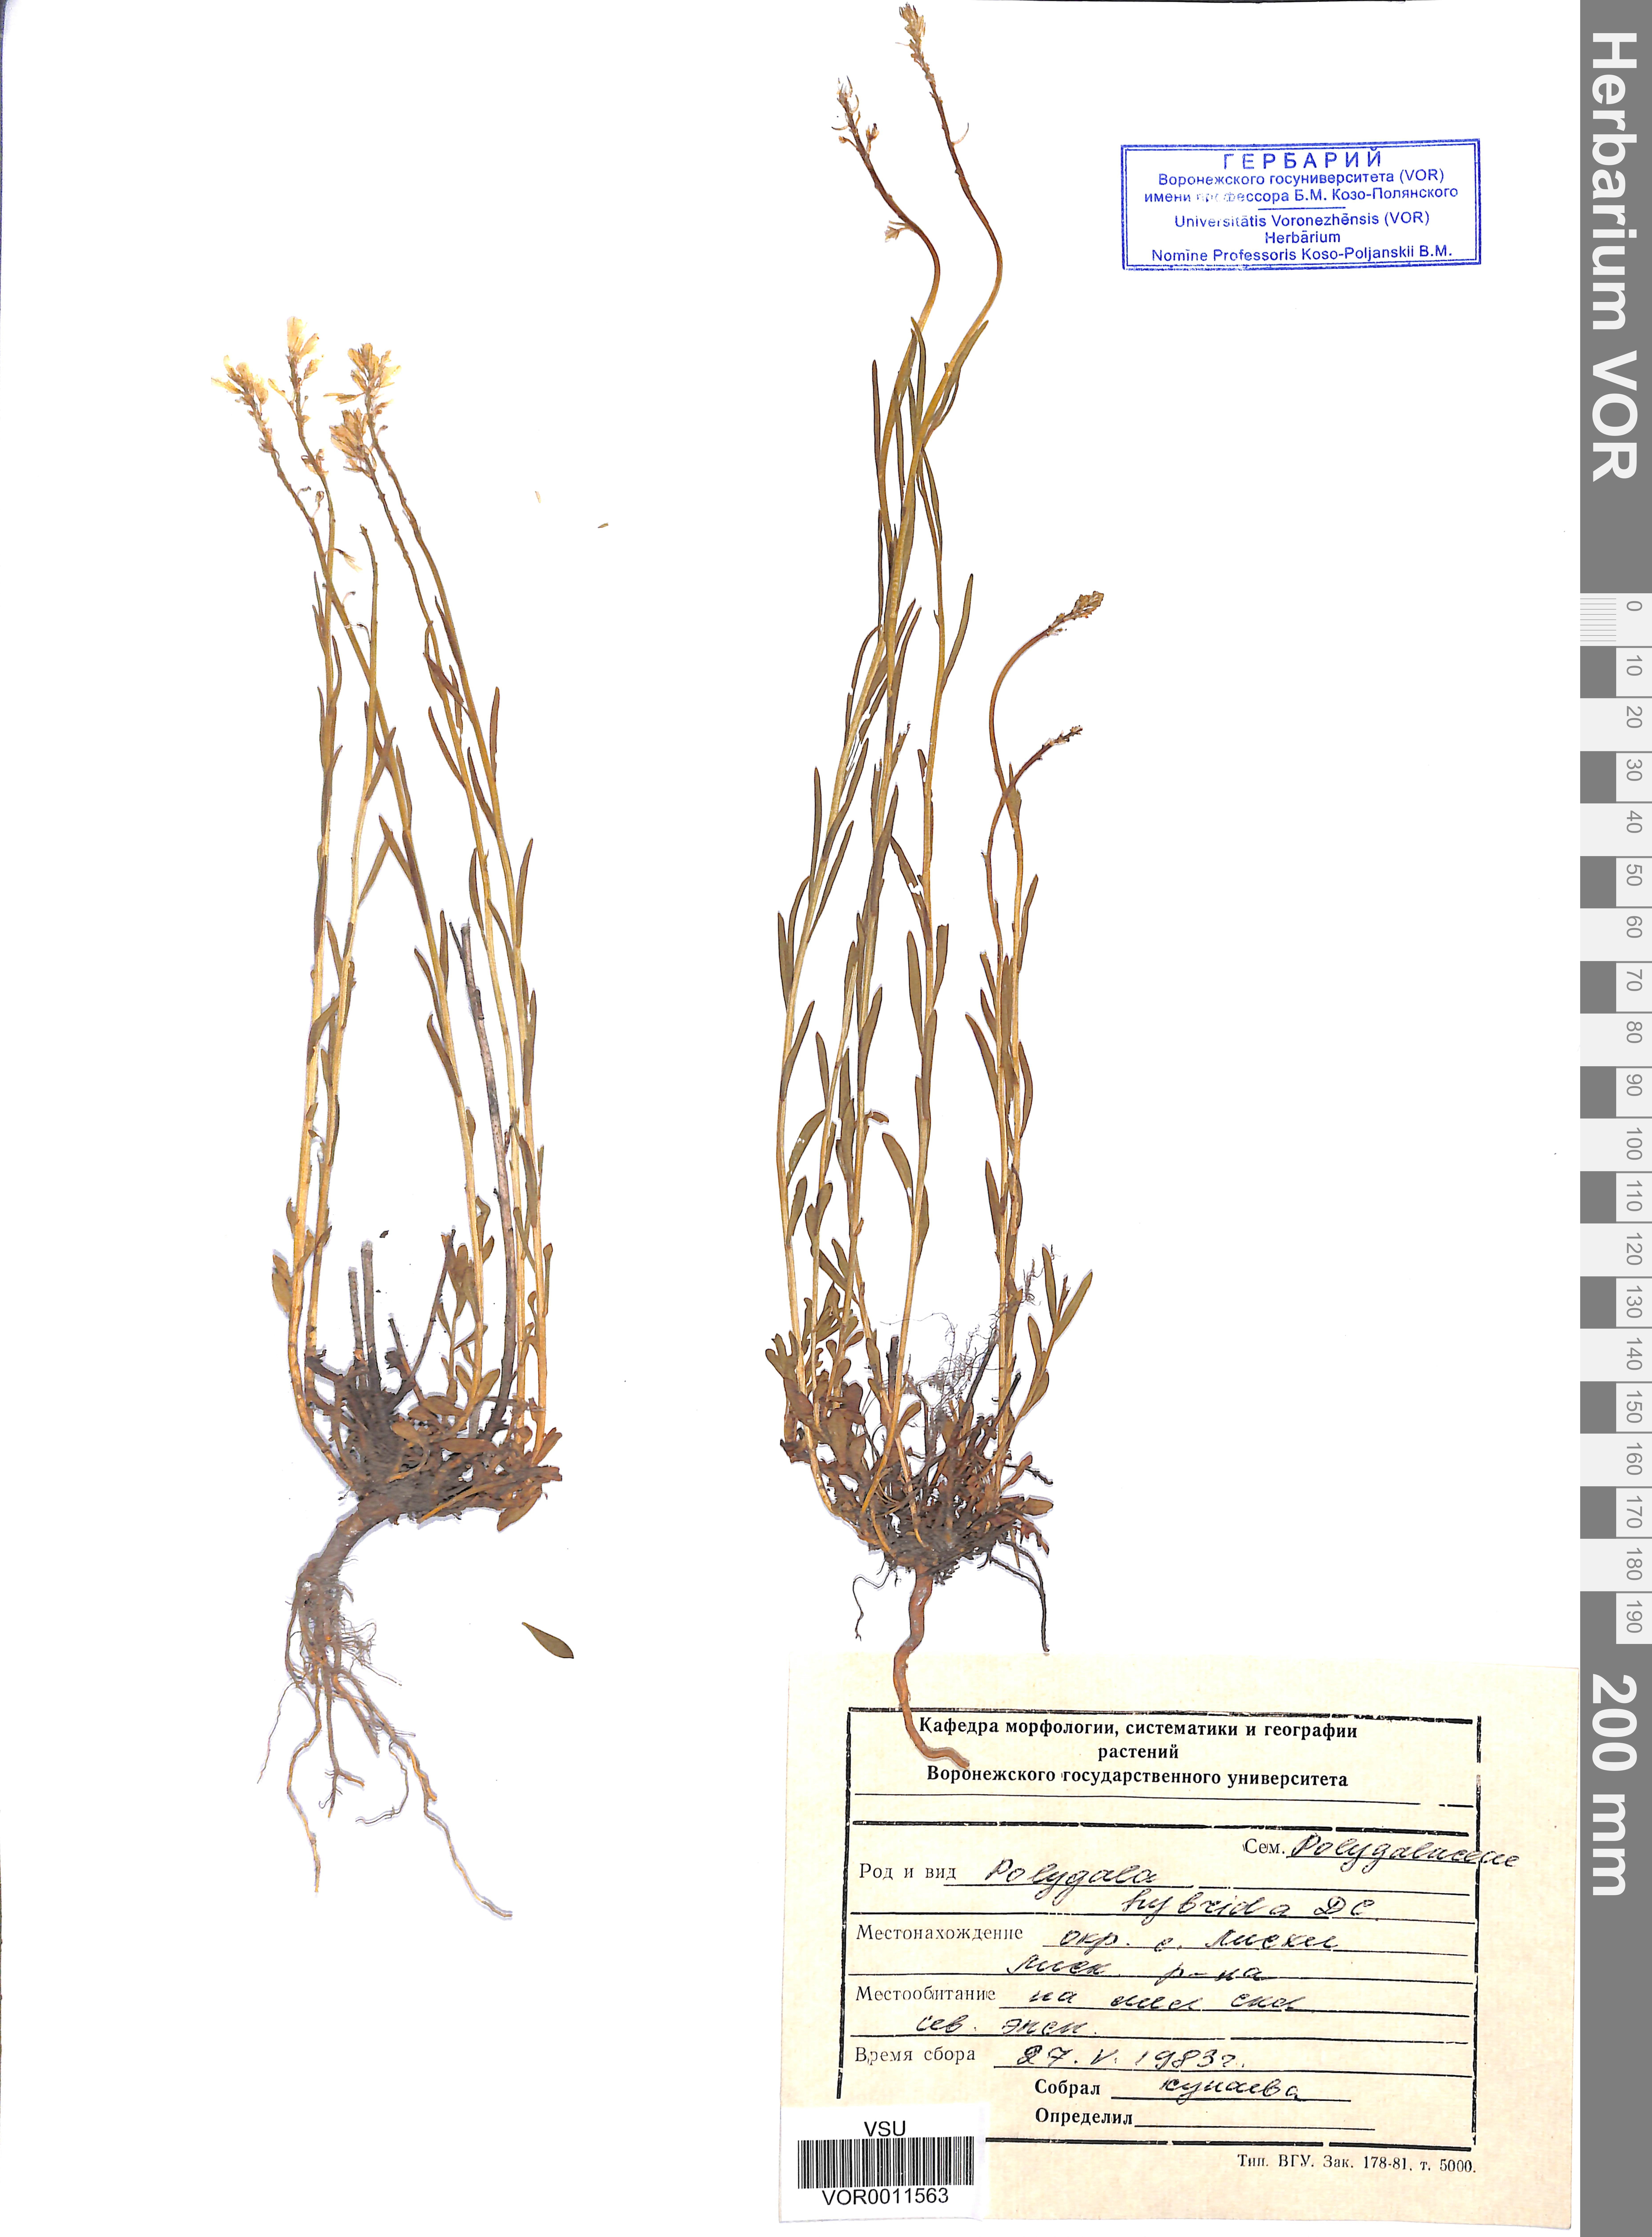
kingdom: Plantae
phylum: Tracheophyta
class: Magnoliopsida
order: Fabales
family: Polygalaceae
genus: Polygala
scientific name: Polygala comosa
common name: Tufted milkwort
